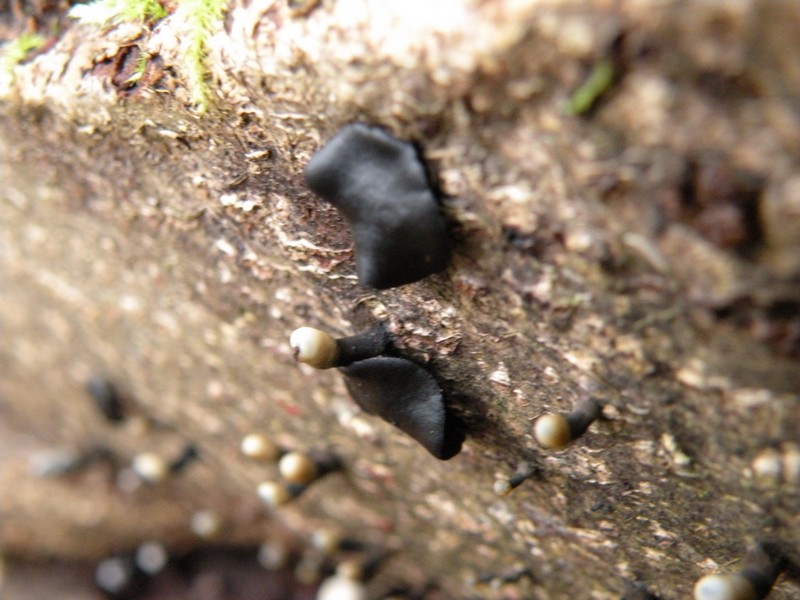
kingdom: Fungi
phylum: Ascomycota
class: Leotiomycetes
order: Helotiales
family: Bulgariaceae
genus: Holwaya
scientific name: Holwaya mucida
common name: lindeskive
